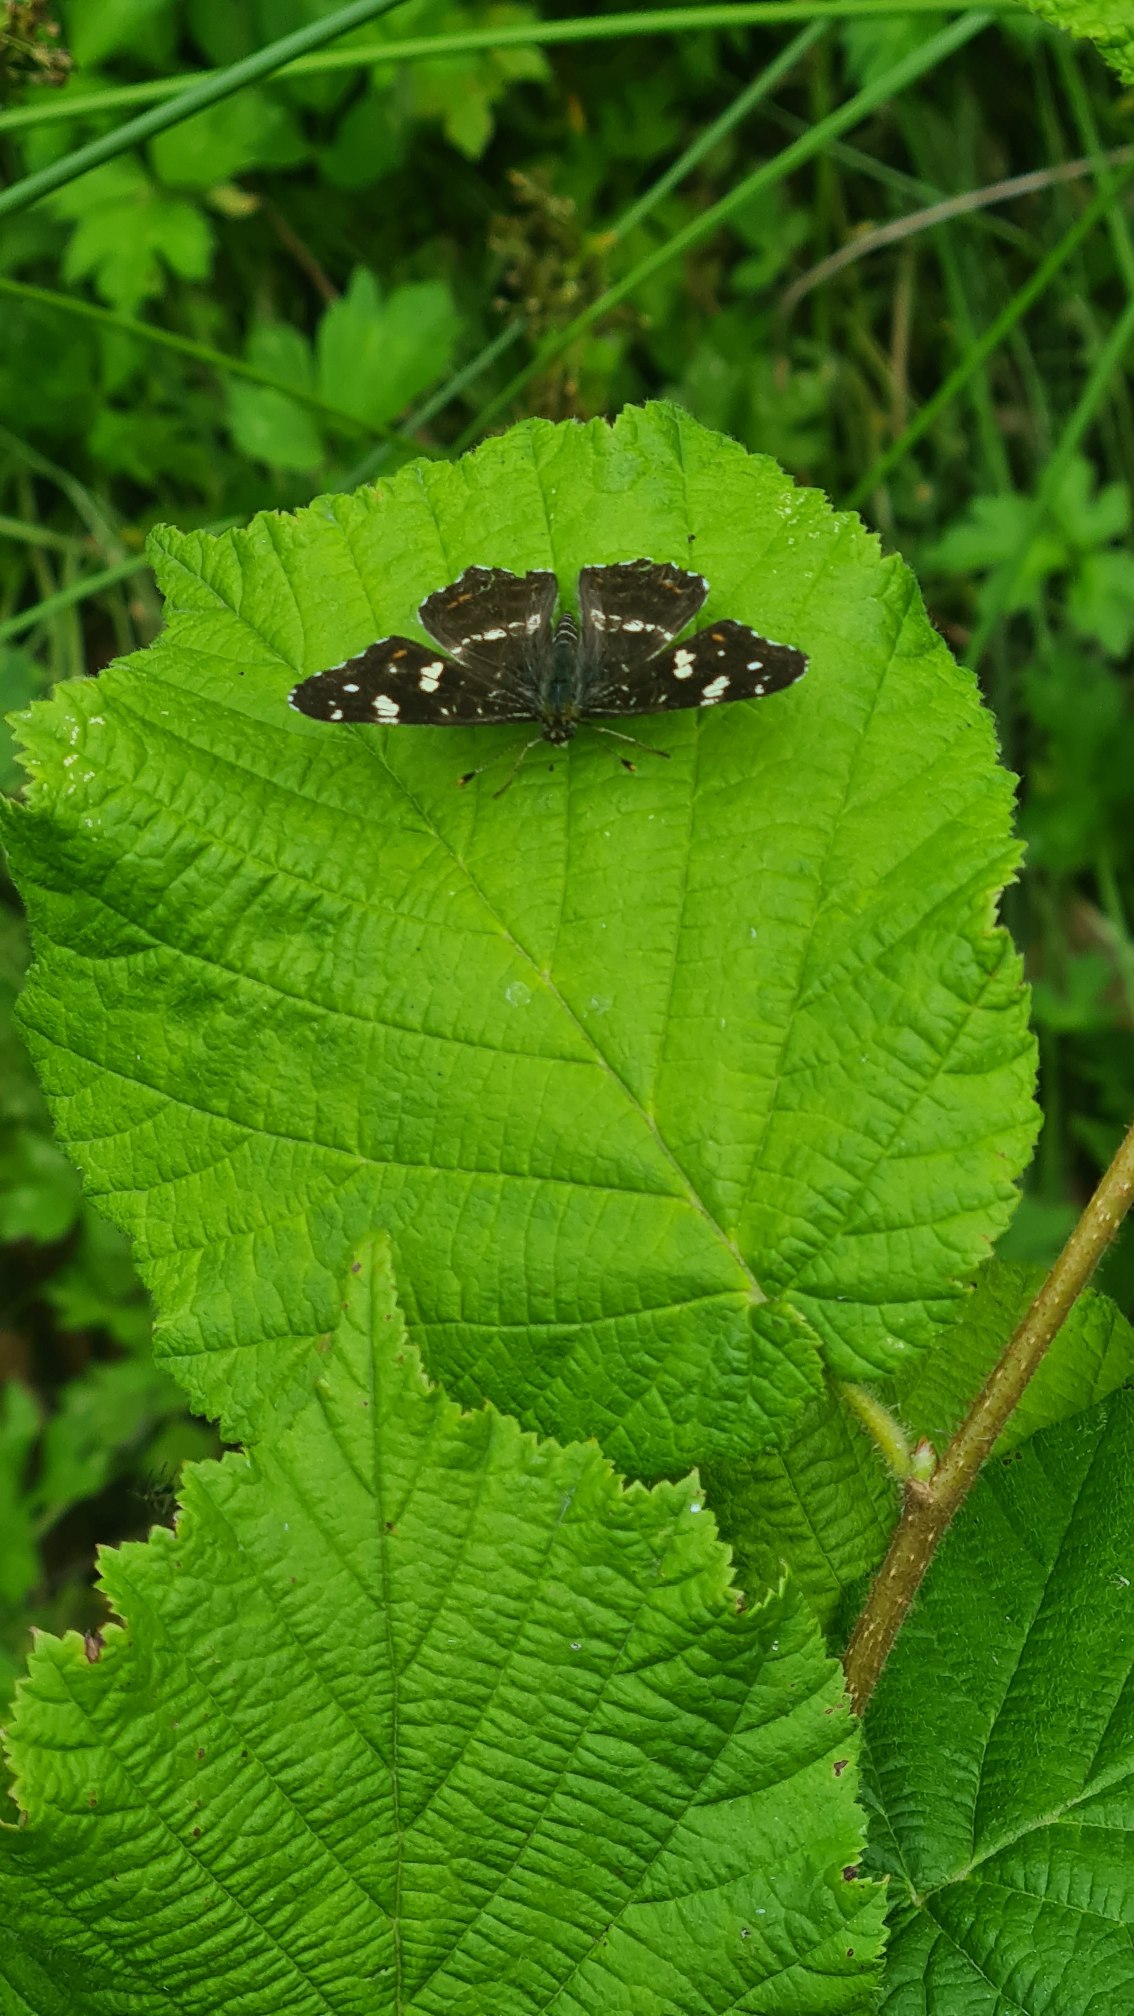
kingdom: Animalia
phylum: Arthropoda
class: Insecta
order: Lepidoptera
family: Nymphalidae
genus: Araschnia
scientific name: Araschnia levana
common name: Nældesommerfugl
